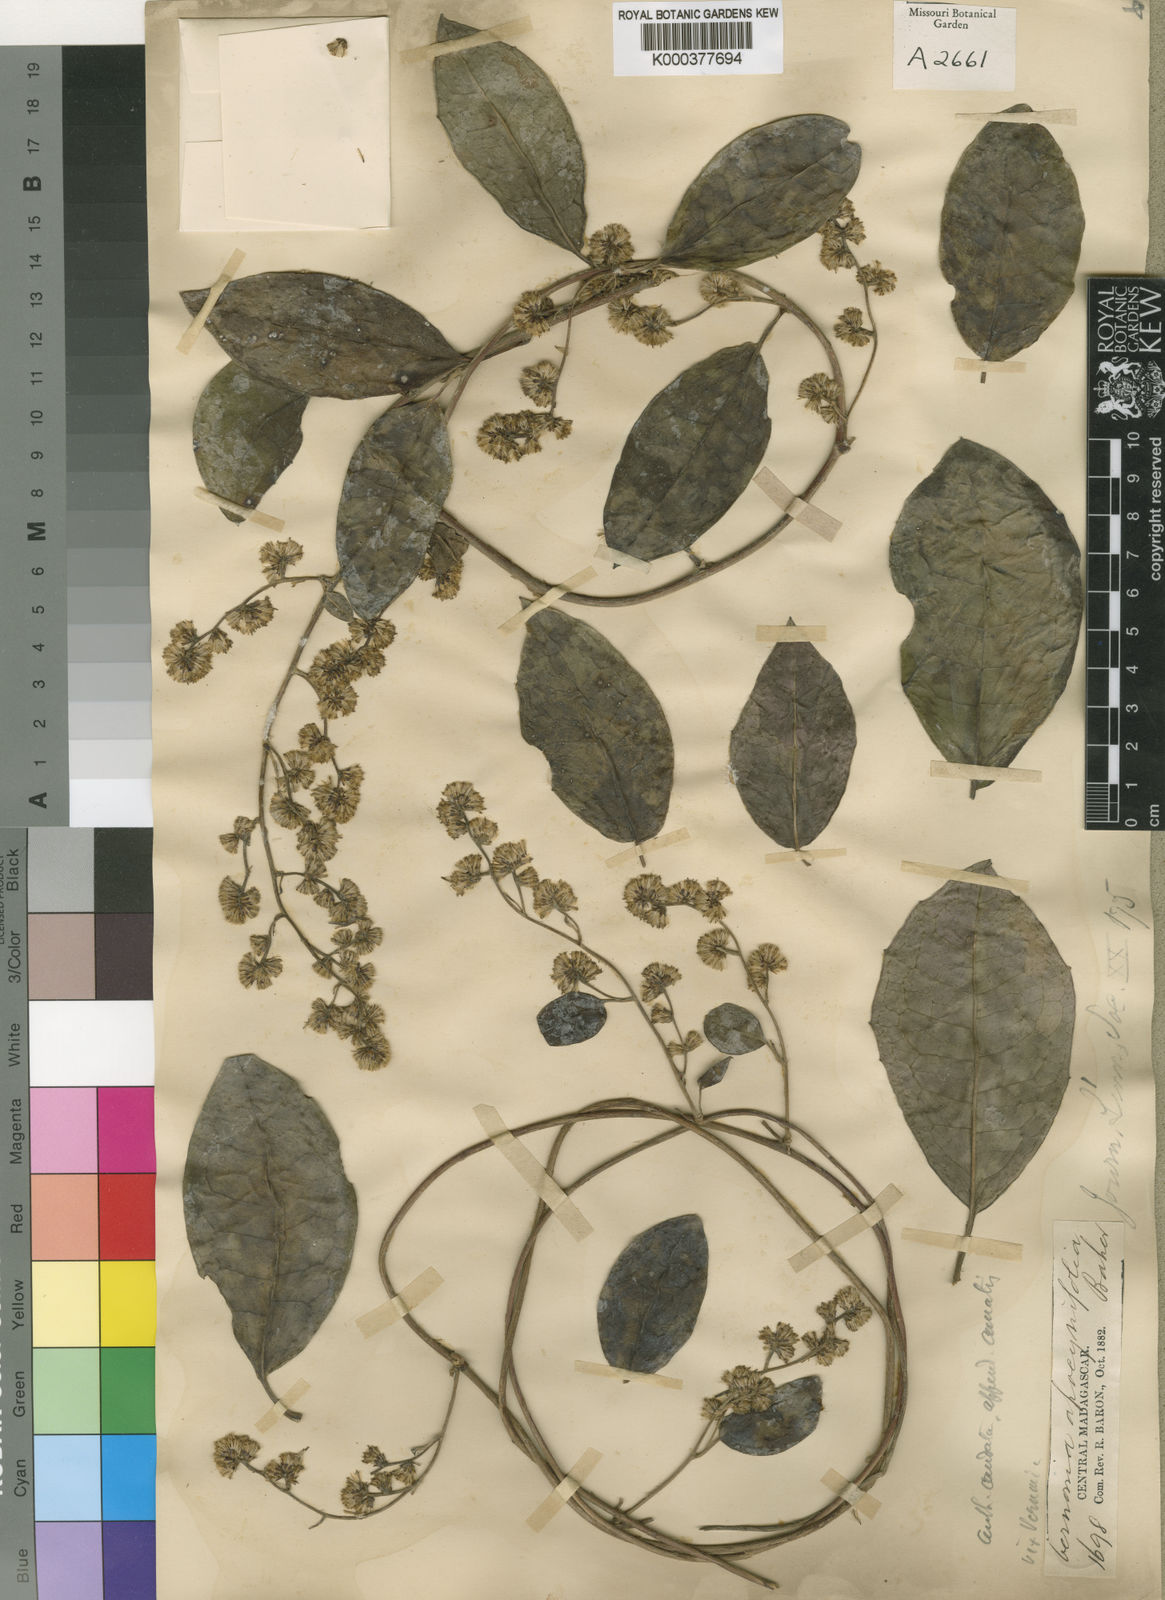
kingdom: Plantae
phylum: Tracheophyta
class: Magnoliopsida
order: Asterales
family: Asteraceae
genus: Humbertacalia
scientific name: Humbertacalia leucopappa
